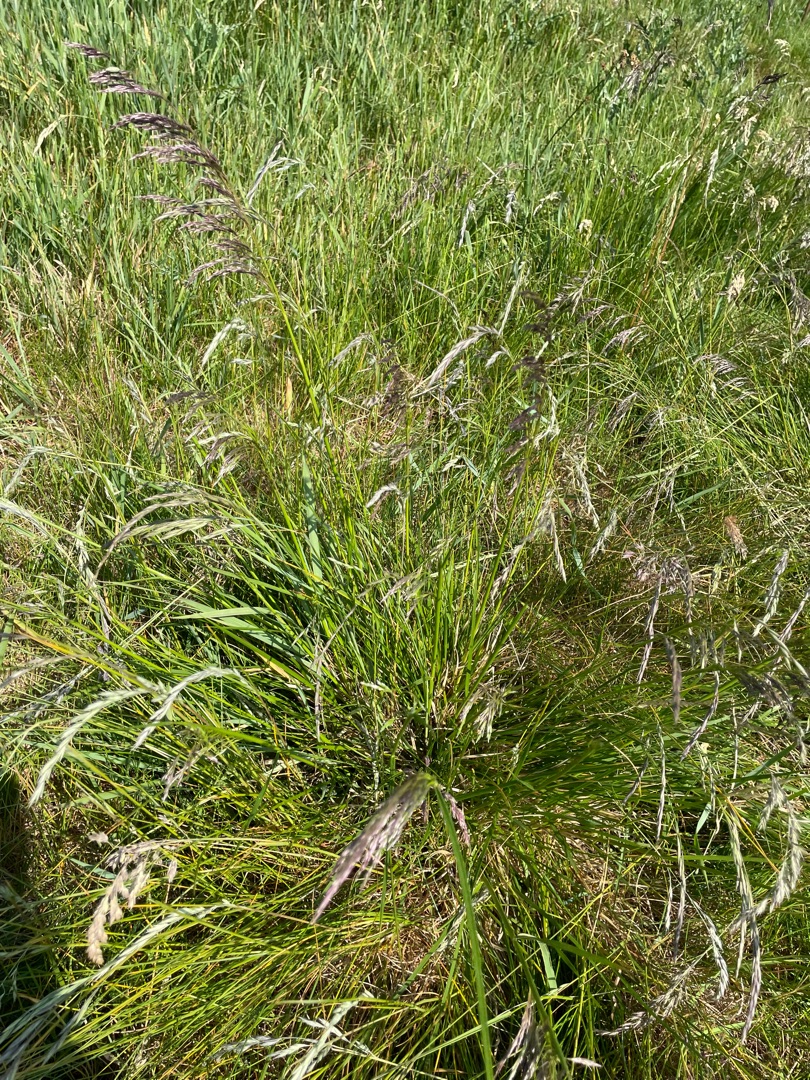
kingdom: Plantae
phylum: Tracheophyta
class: Liliopsida
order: Poales
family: Poaceae
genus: Lolium
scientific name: Lolium arundinaceum
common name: Strand-svingel
